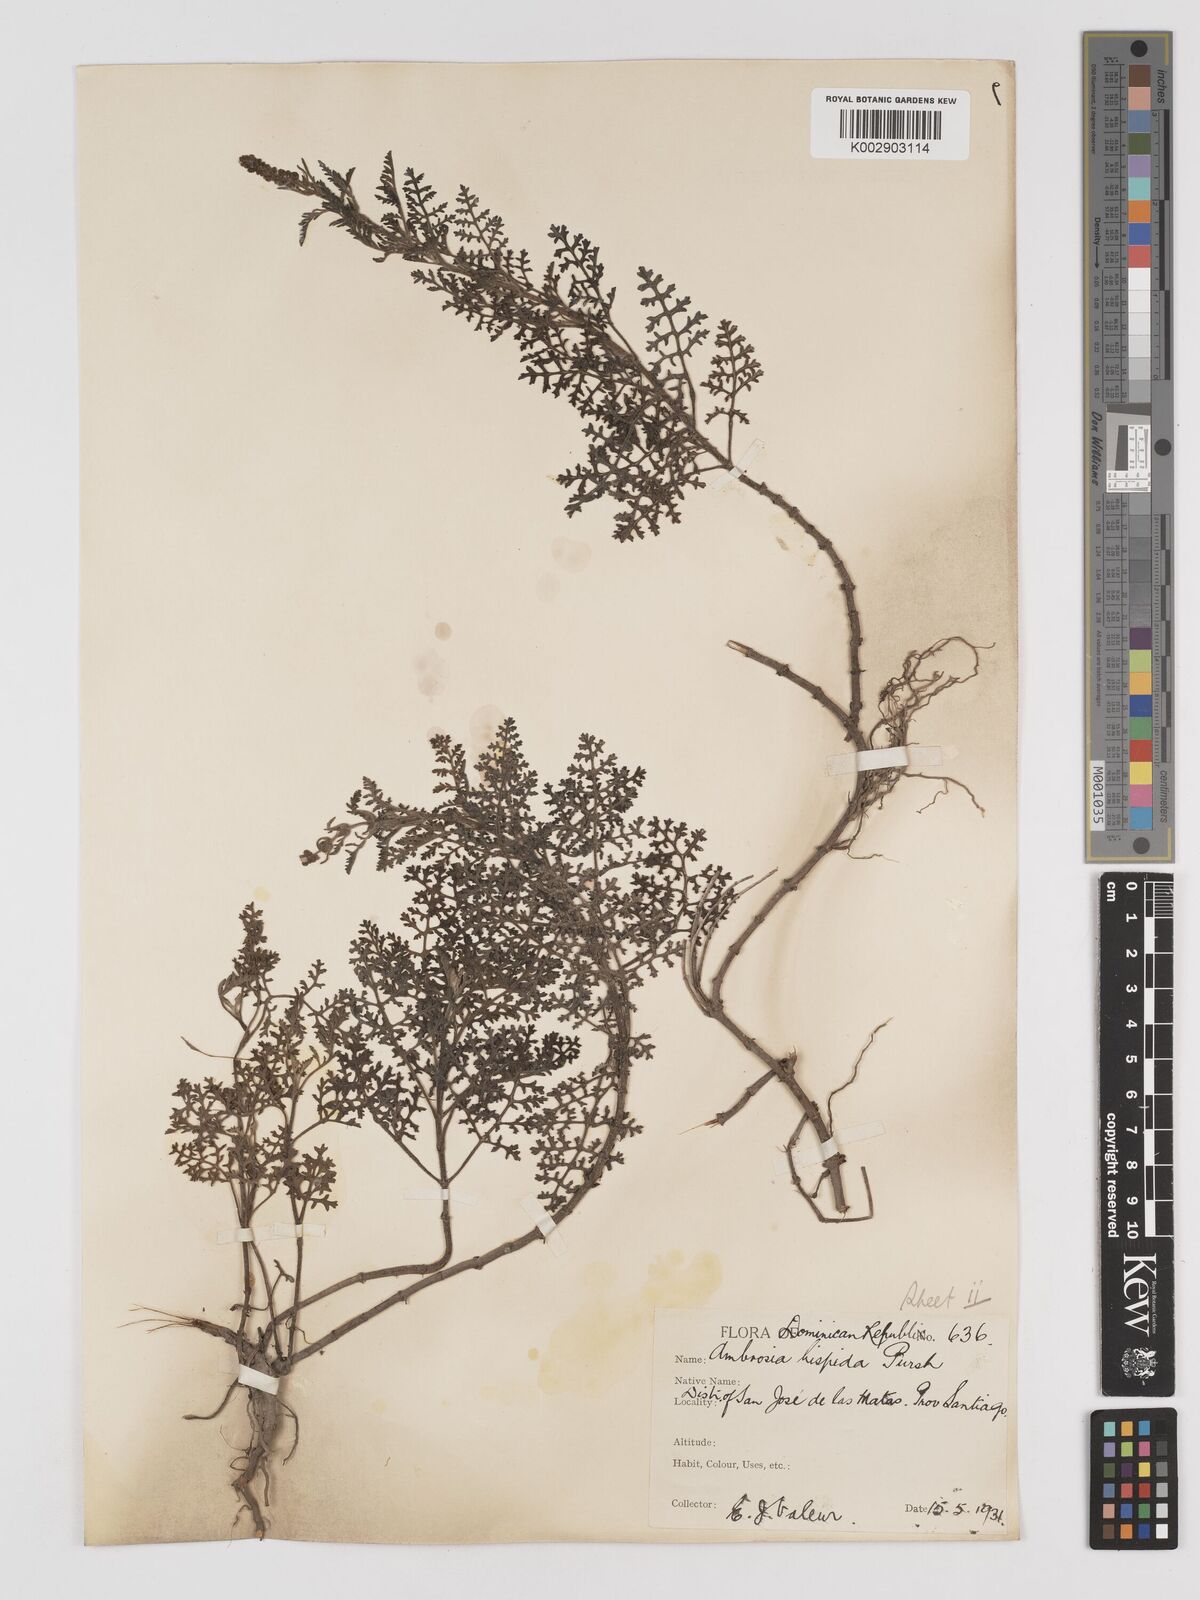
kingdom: Plantae
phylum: Tracheophyta
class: Magnoliopsida
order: Asterales
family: Asteraceae
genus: Ambrosia
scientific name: Ambrosia cumanensis
